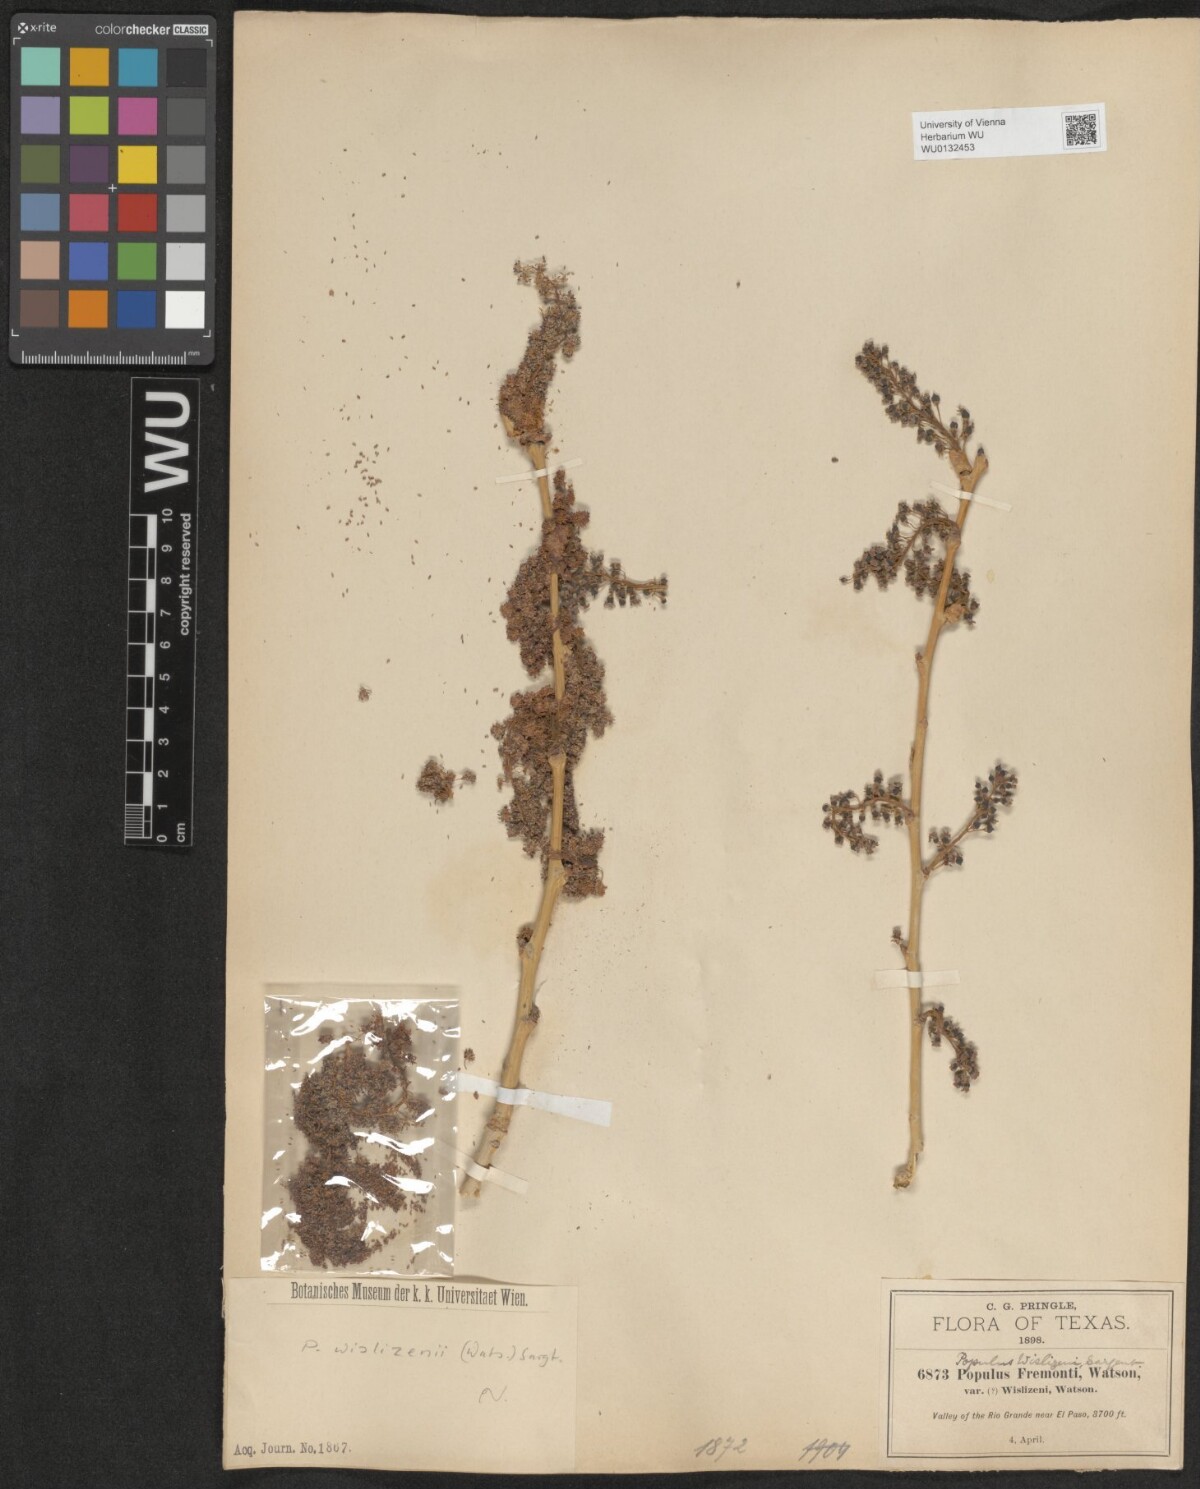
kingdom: Plantae
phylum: Tracheophyta
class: Magnoliopsida
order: Malpighiales
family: Salicaceae
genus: Populus
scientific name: Populus deltoides
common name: Eastern cottonwood
